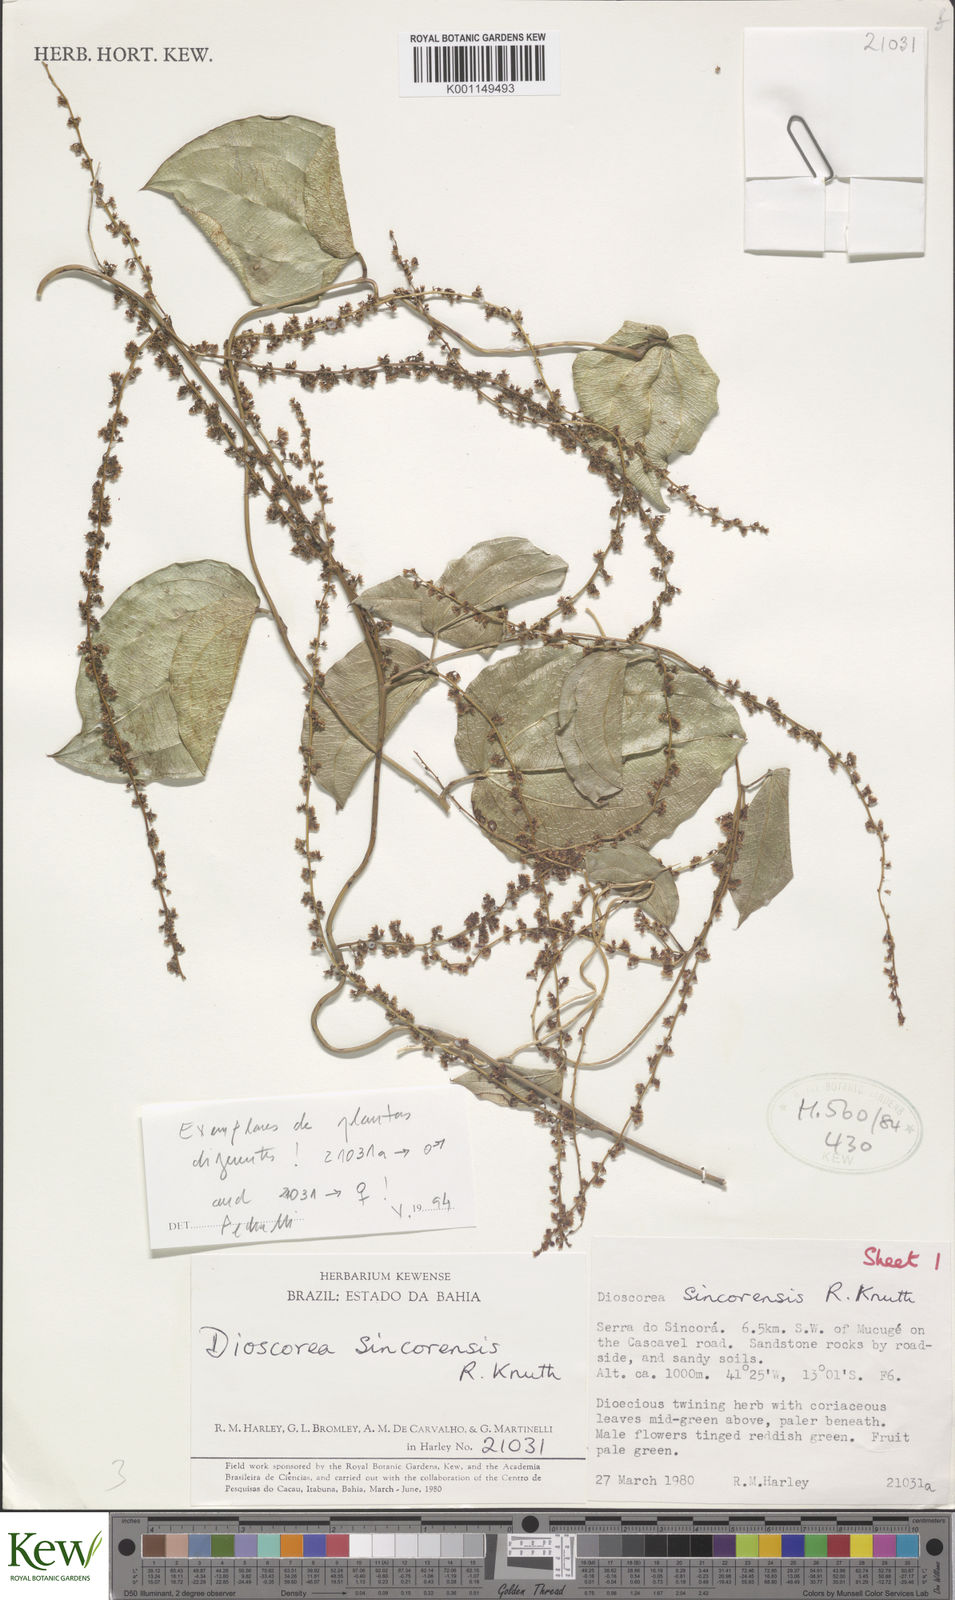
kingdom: Plantae
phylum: Tracheophyta
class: Liliopsida
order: Dioscoreales
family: Dioscoreaceae
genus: Dioscorea
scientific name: Dioscorea sincorensis
